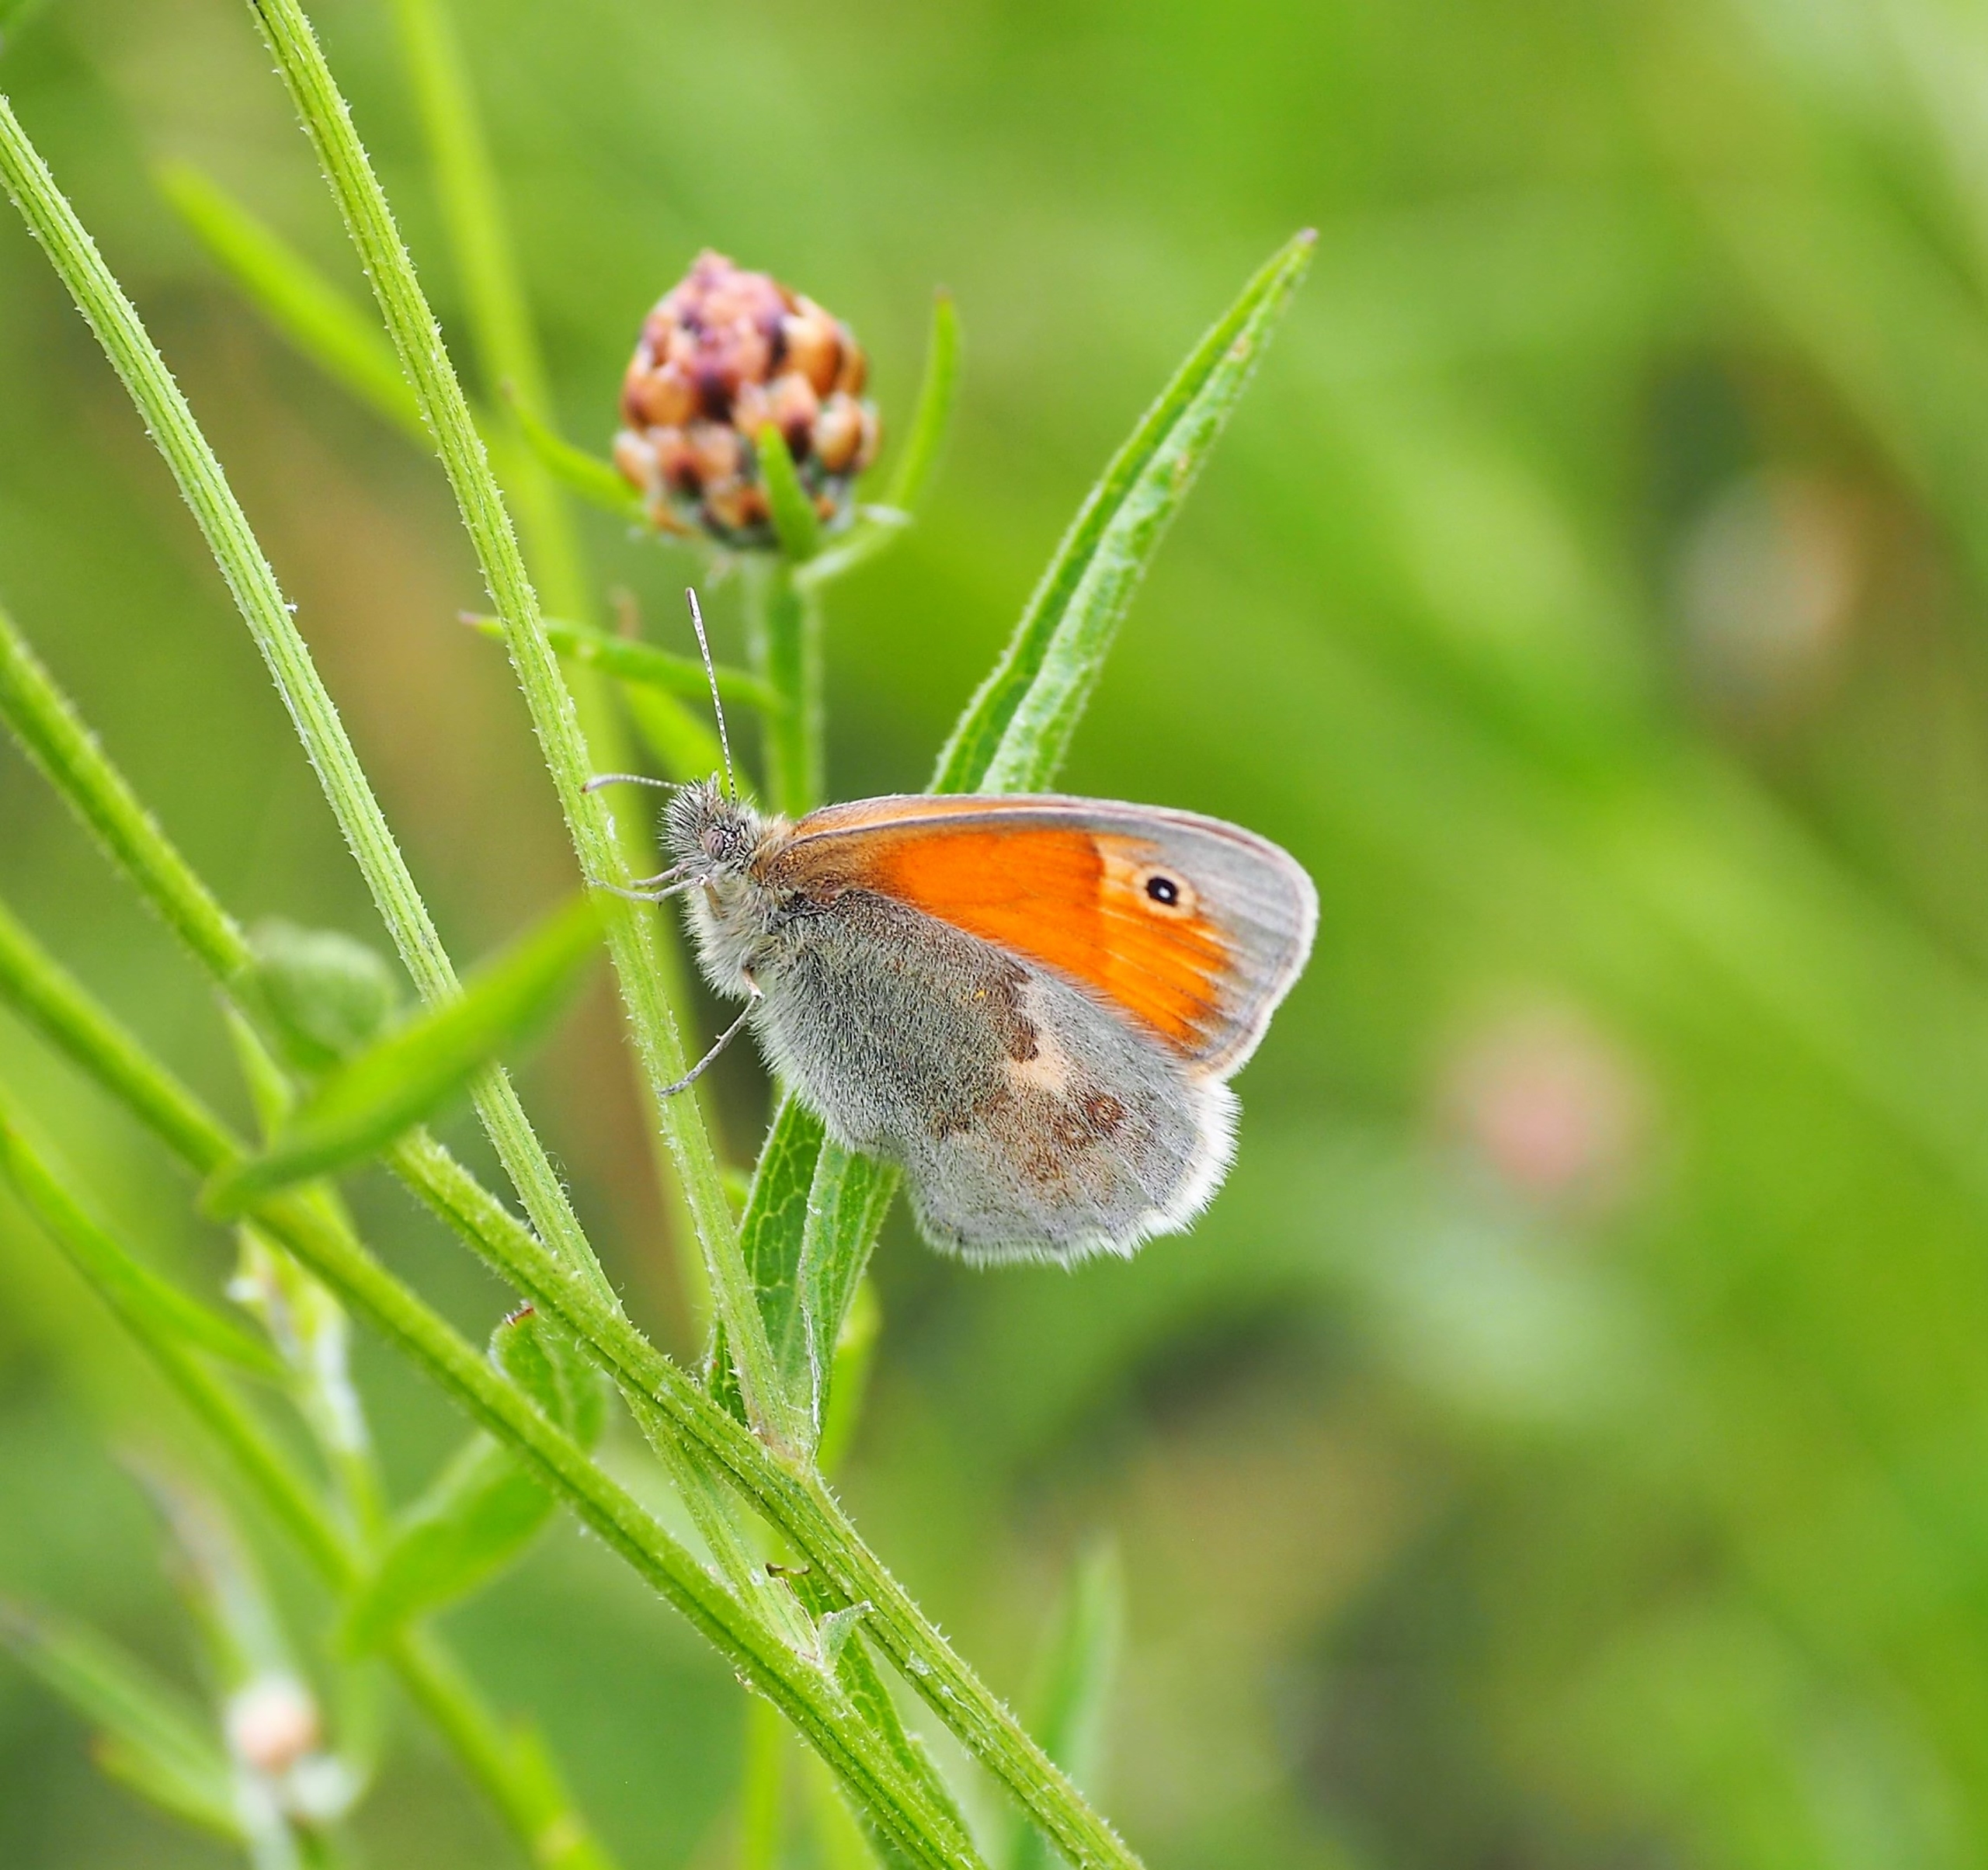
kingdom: Animalia
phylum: Arthropoda
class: Insecta
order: Lepidoptera
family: Nymphalidae
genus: Coenonympha
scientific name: Coenonympha pamphilus
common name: Okkergul randøje
